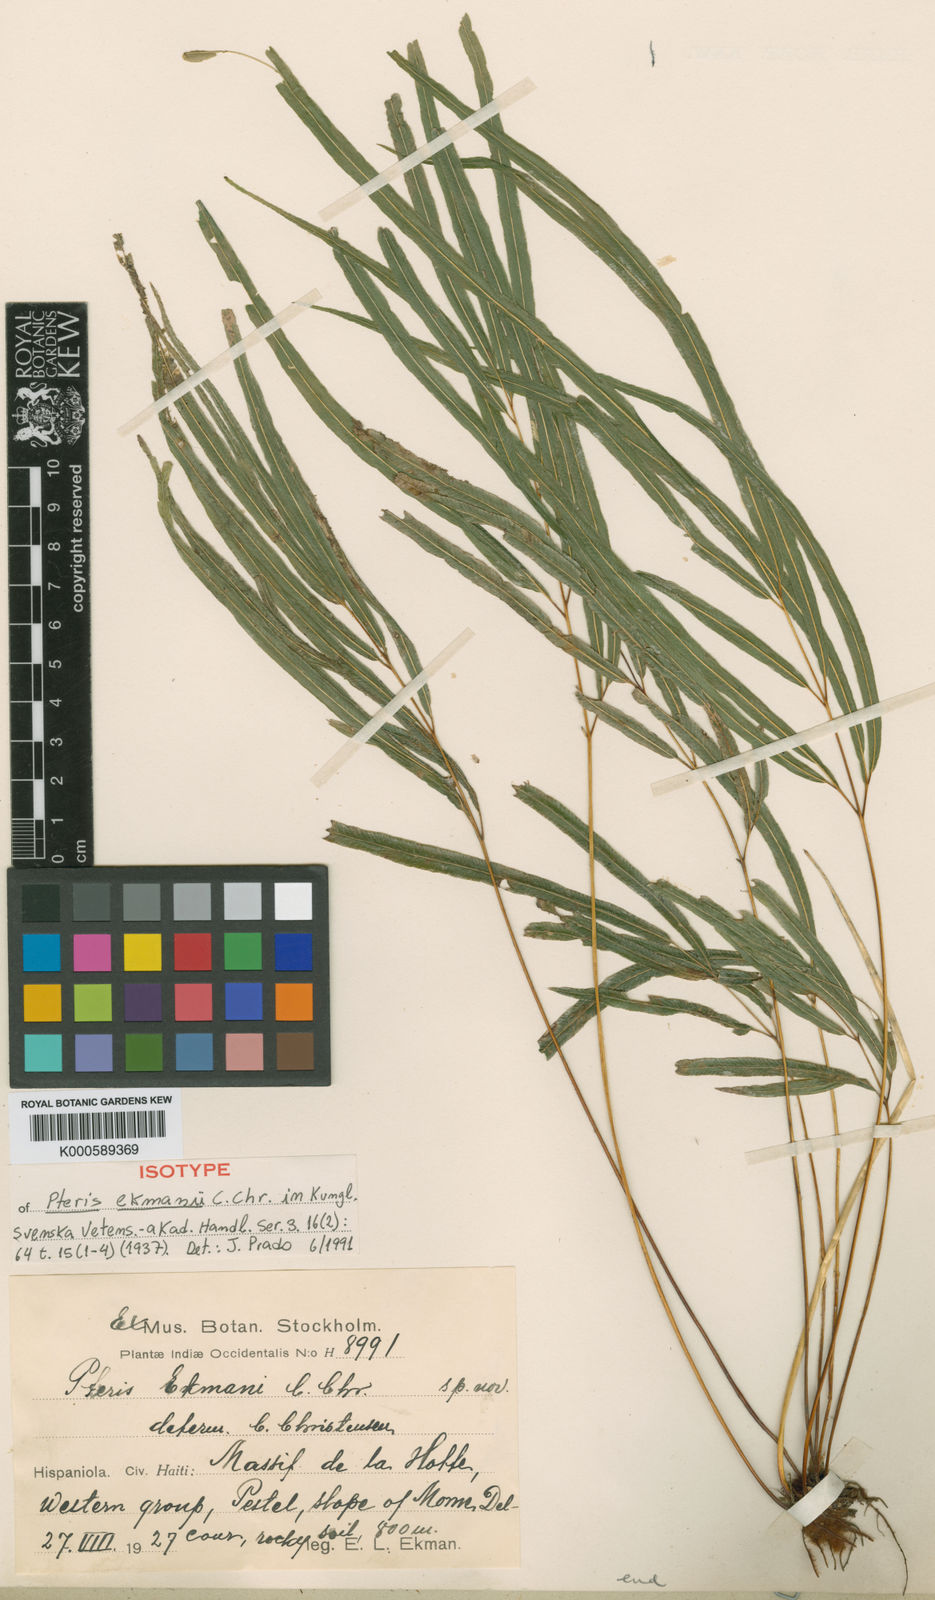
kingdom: Plantae
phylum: Tracheophyta
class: Polypodiopsida
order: Polypodiales
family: Pteridaceae
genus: Pteris
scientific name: Pteris ekmanii
